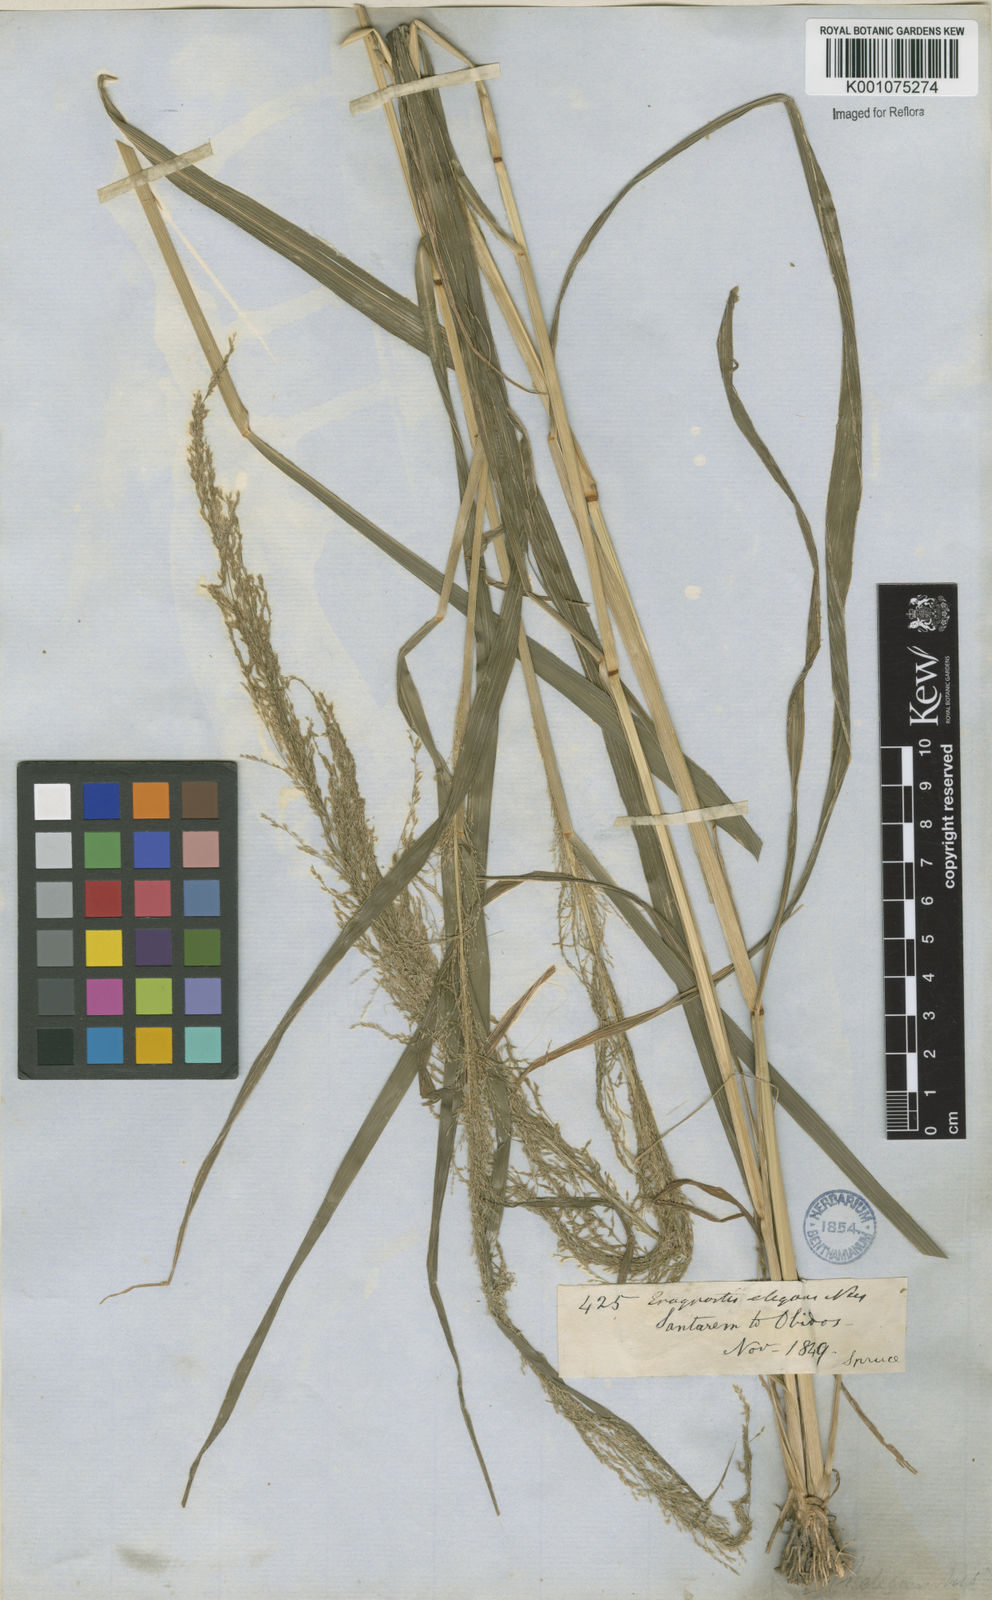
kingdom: Plantae
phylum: Tracheophyta
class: Liliopsida
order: Poales
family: Poaceae
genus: Eragrostis
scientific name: Eragrostis japonica
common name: Pond lovegrass
